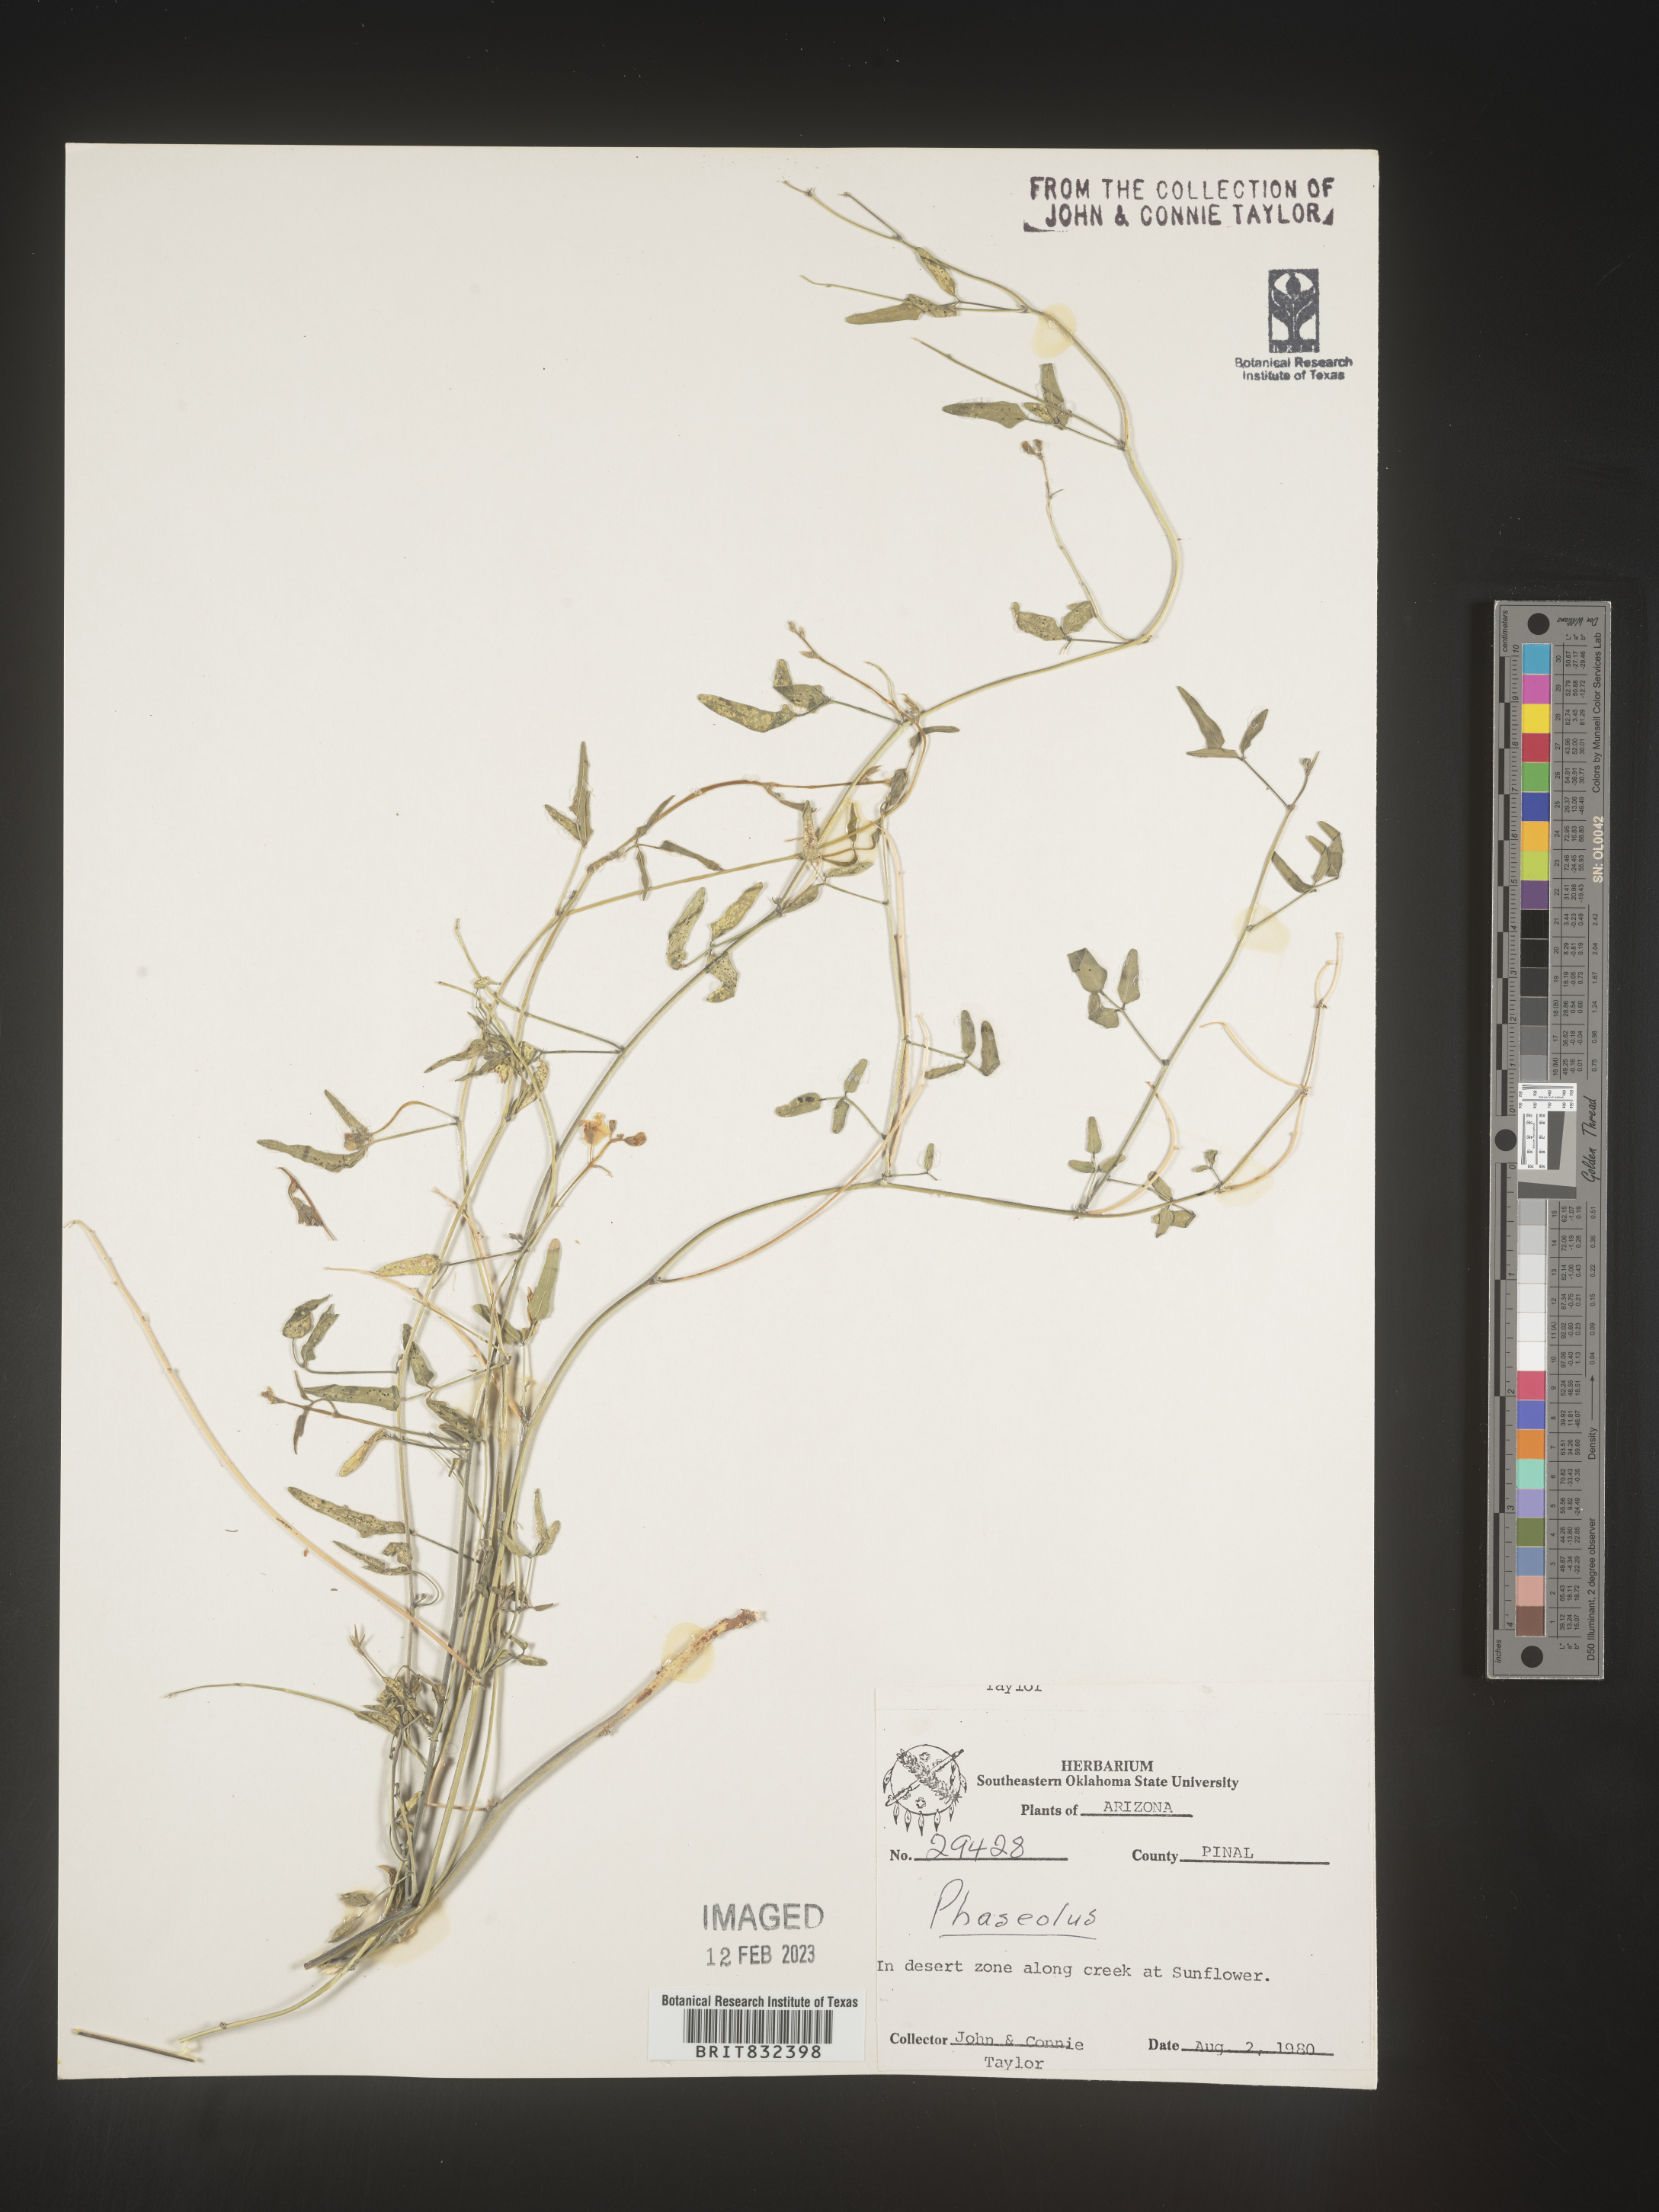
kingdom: Plantae
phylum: Tracheophyta
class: Magnoliopsida
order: Fabales
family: Fabaceae
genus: Strophostyles
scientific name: Strophostyles umbellata
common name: Perennial wild bean
